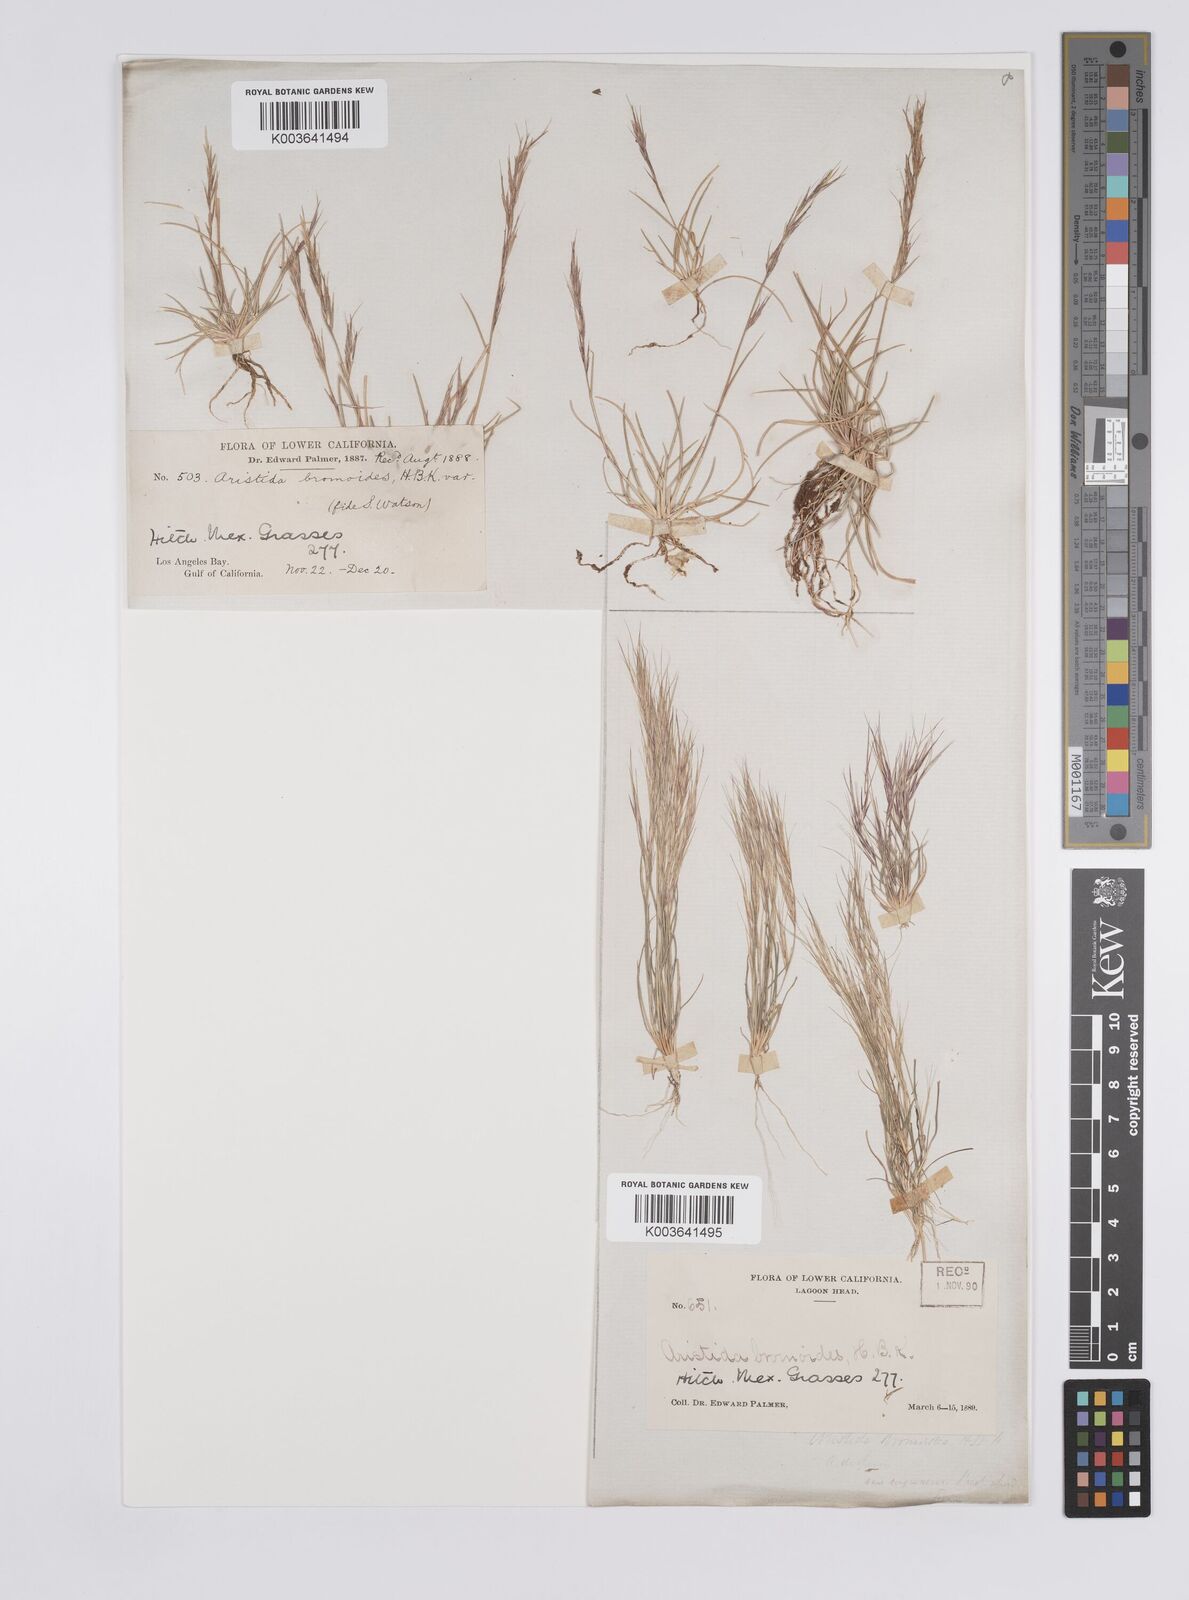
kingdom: Plantae
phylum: Tracheophyta
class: Liliopsida
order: Poales
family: Poaceae
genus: Aristida
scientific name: Aristida adscensionis
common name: Sixweeks threeawn
